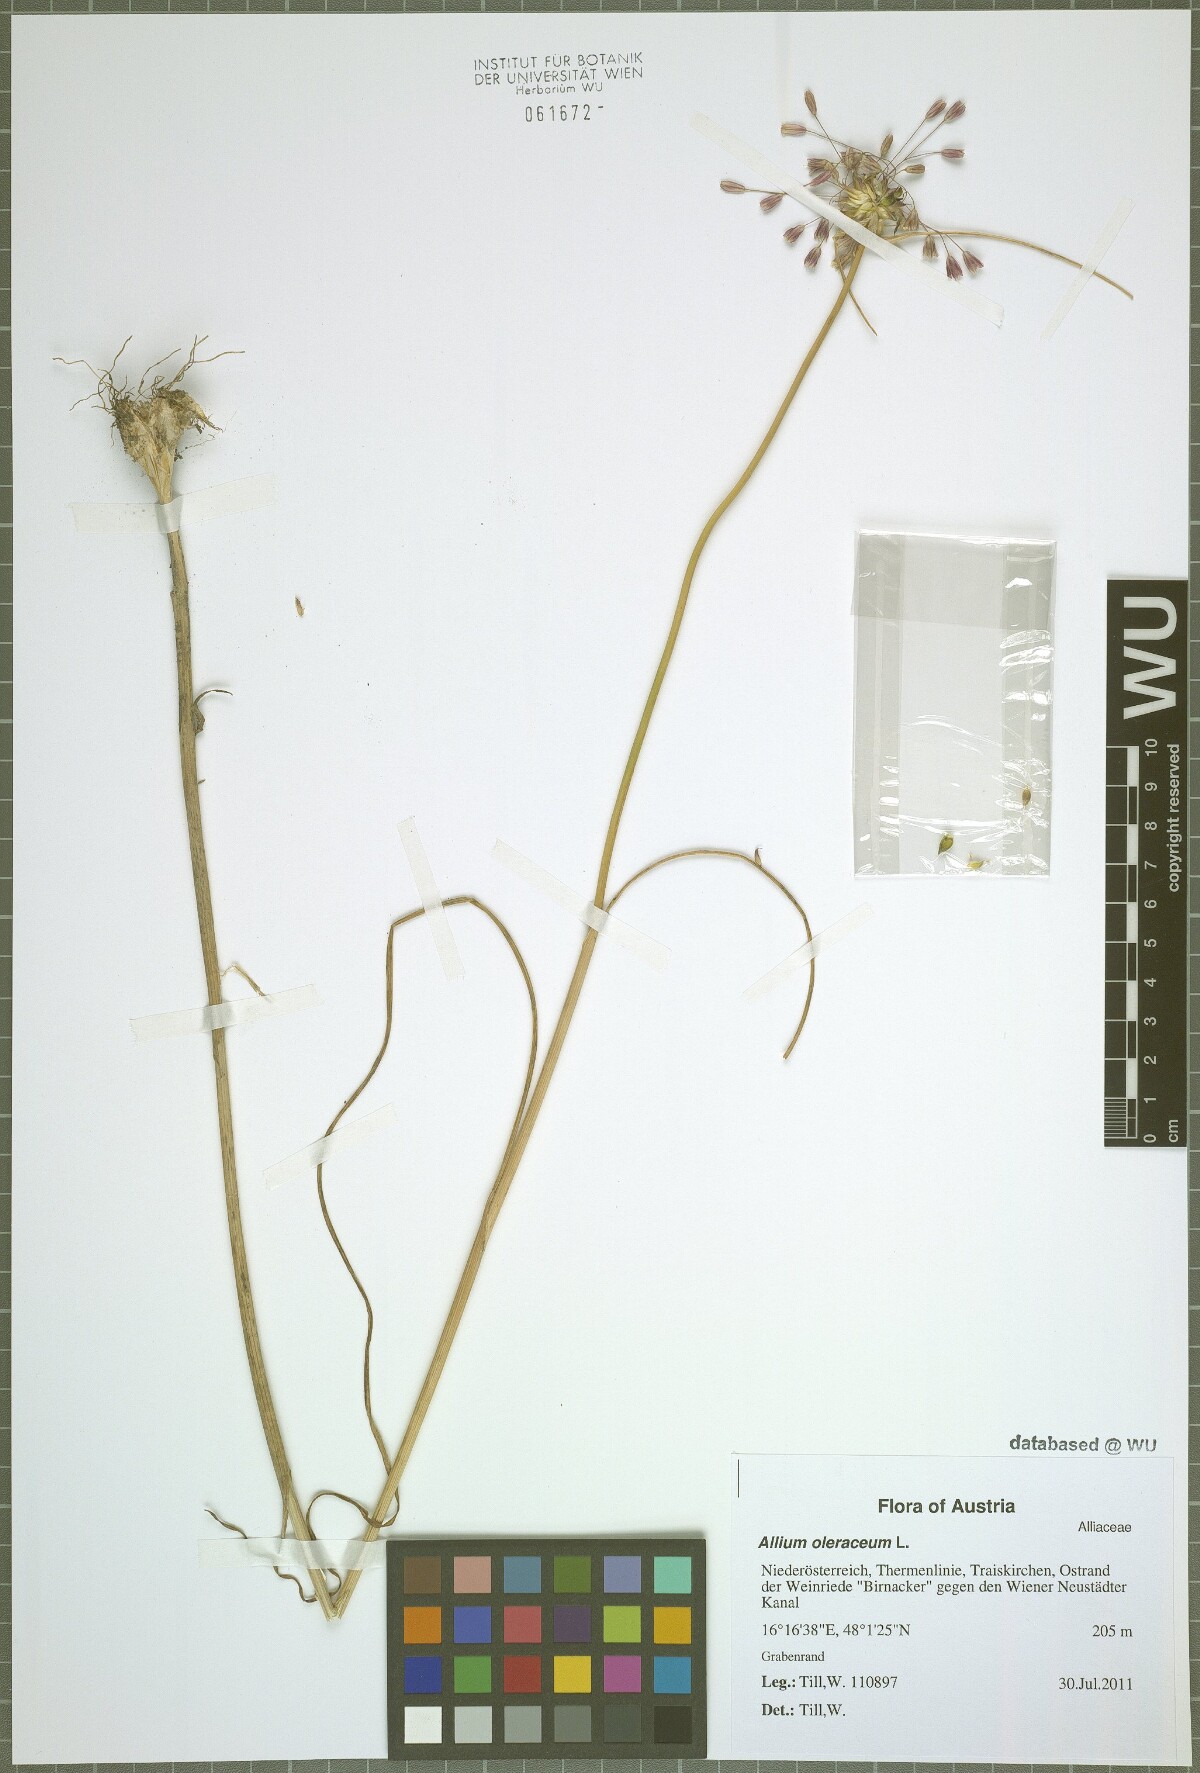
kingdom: Plantae
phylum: Tracheophyta
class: Liliopsida
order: Asparagales
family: Amaryllidaceae
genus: Allium
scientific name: Allium oleraceum
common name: Field garlic
